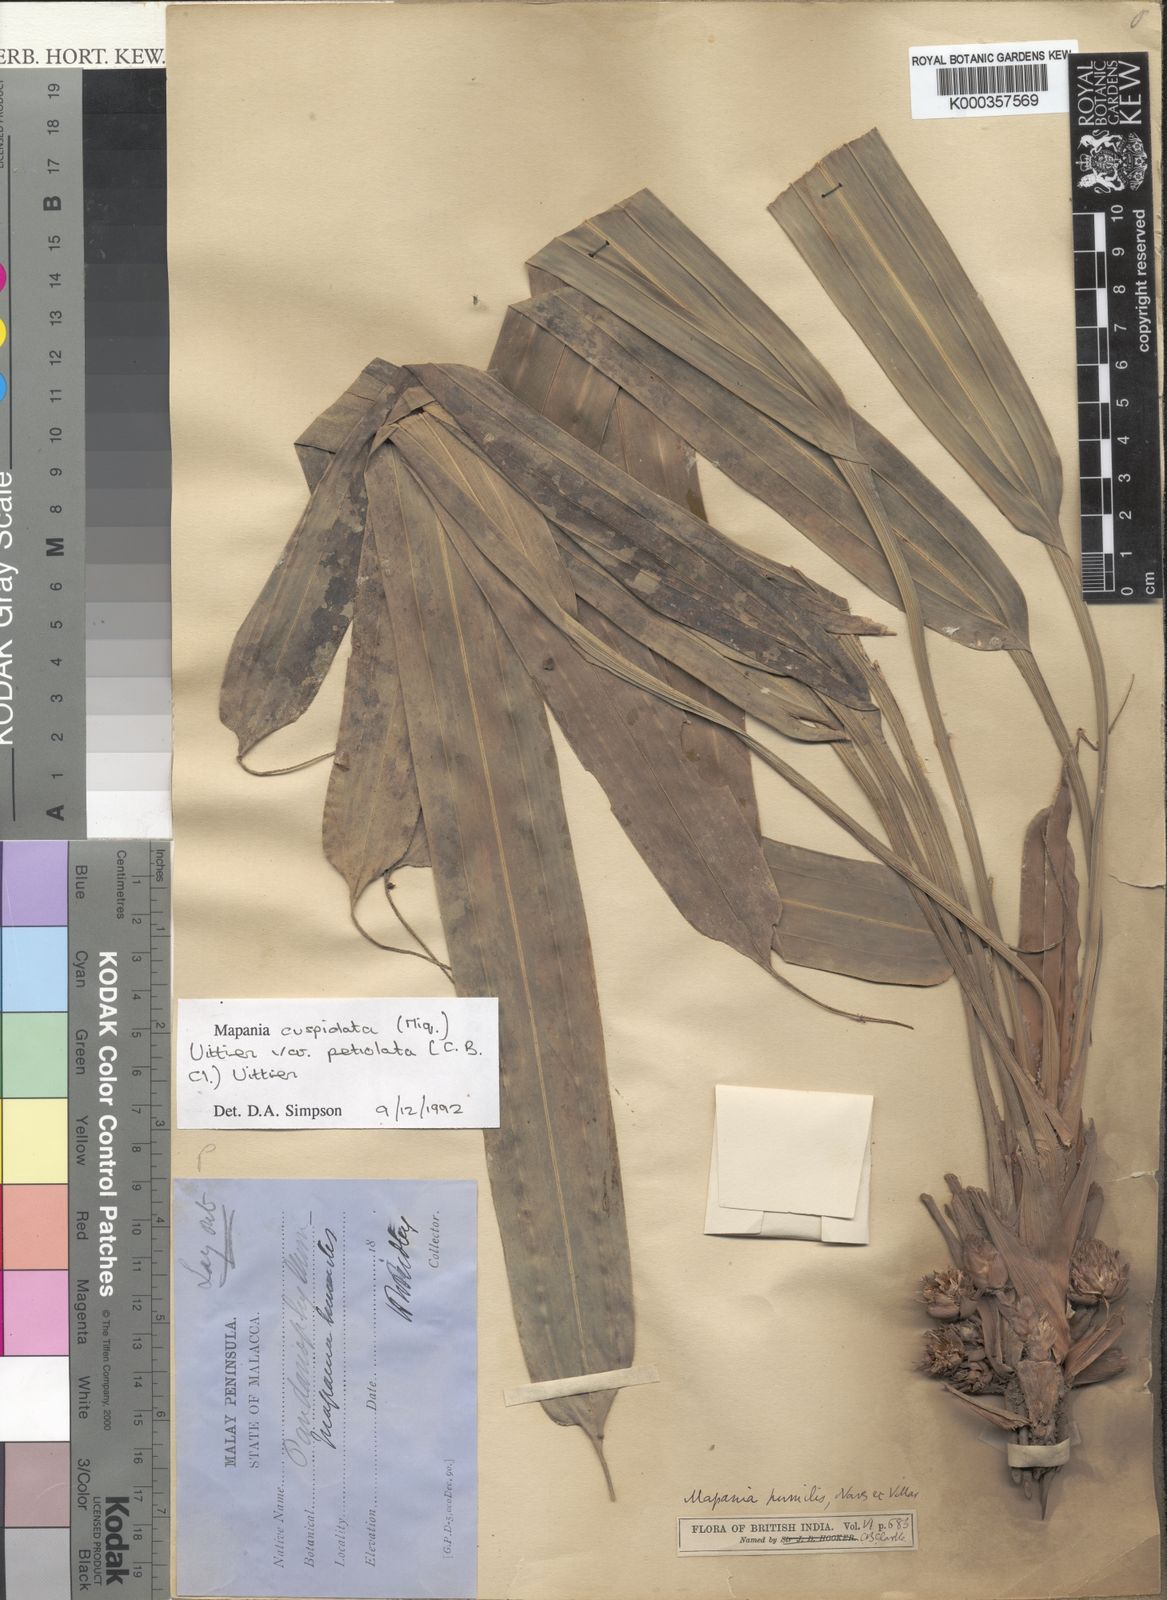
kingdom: Plantae
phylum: Tracheophyta
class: Liliopsida
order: Poales
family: Cyperaceae
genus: Mapania
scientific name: Mapania cuspidata
